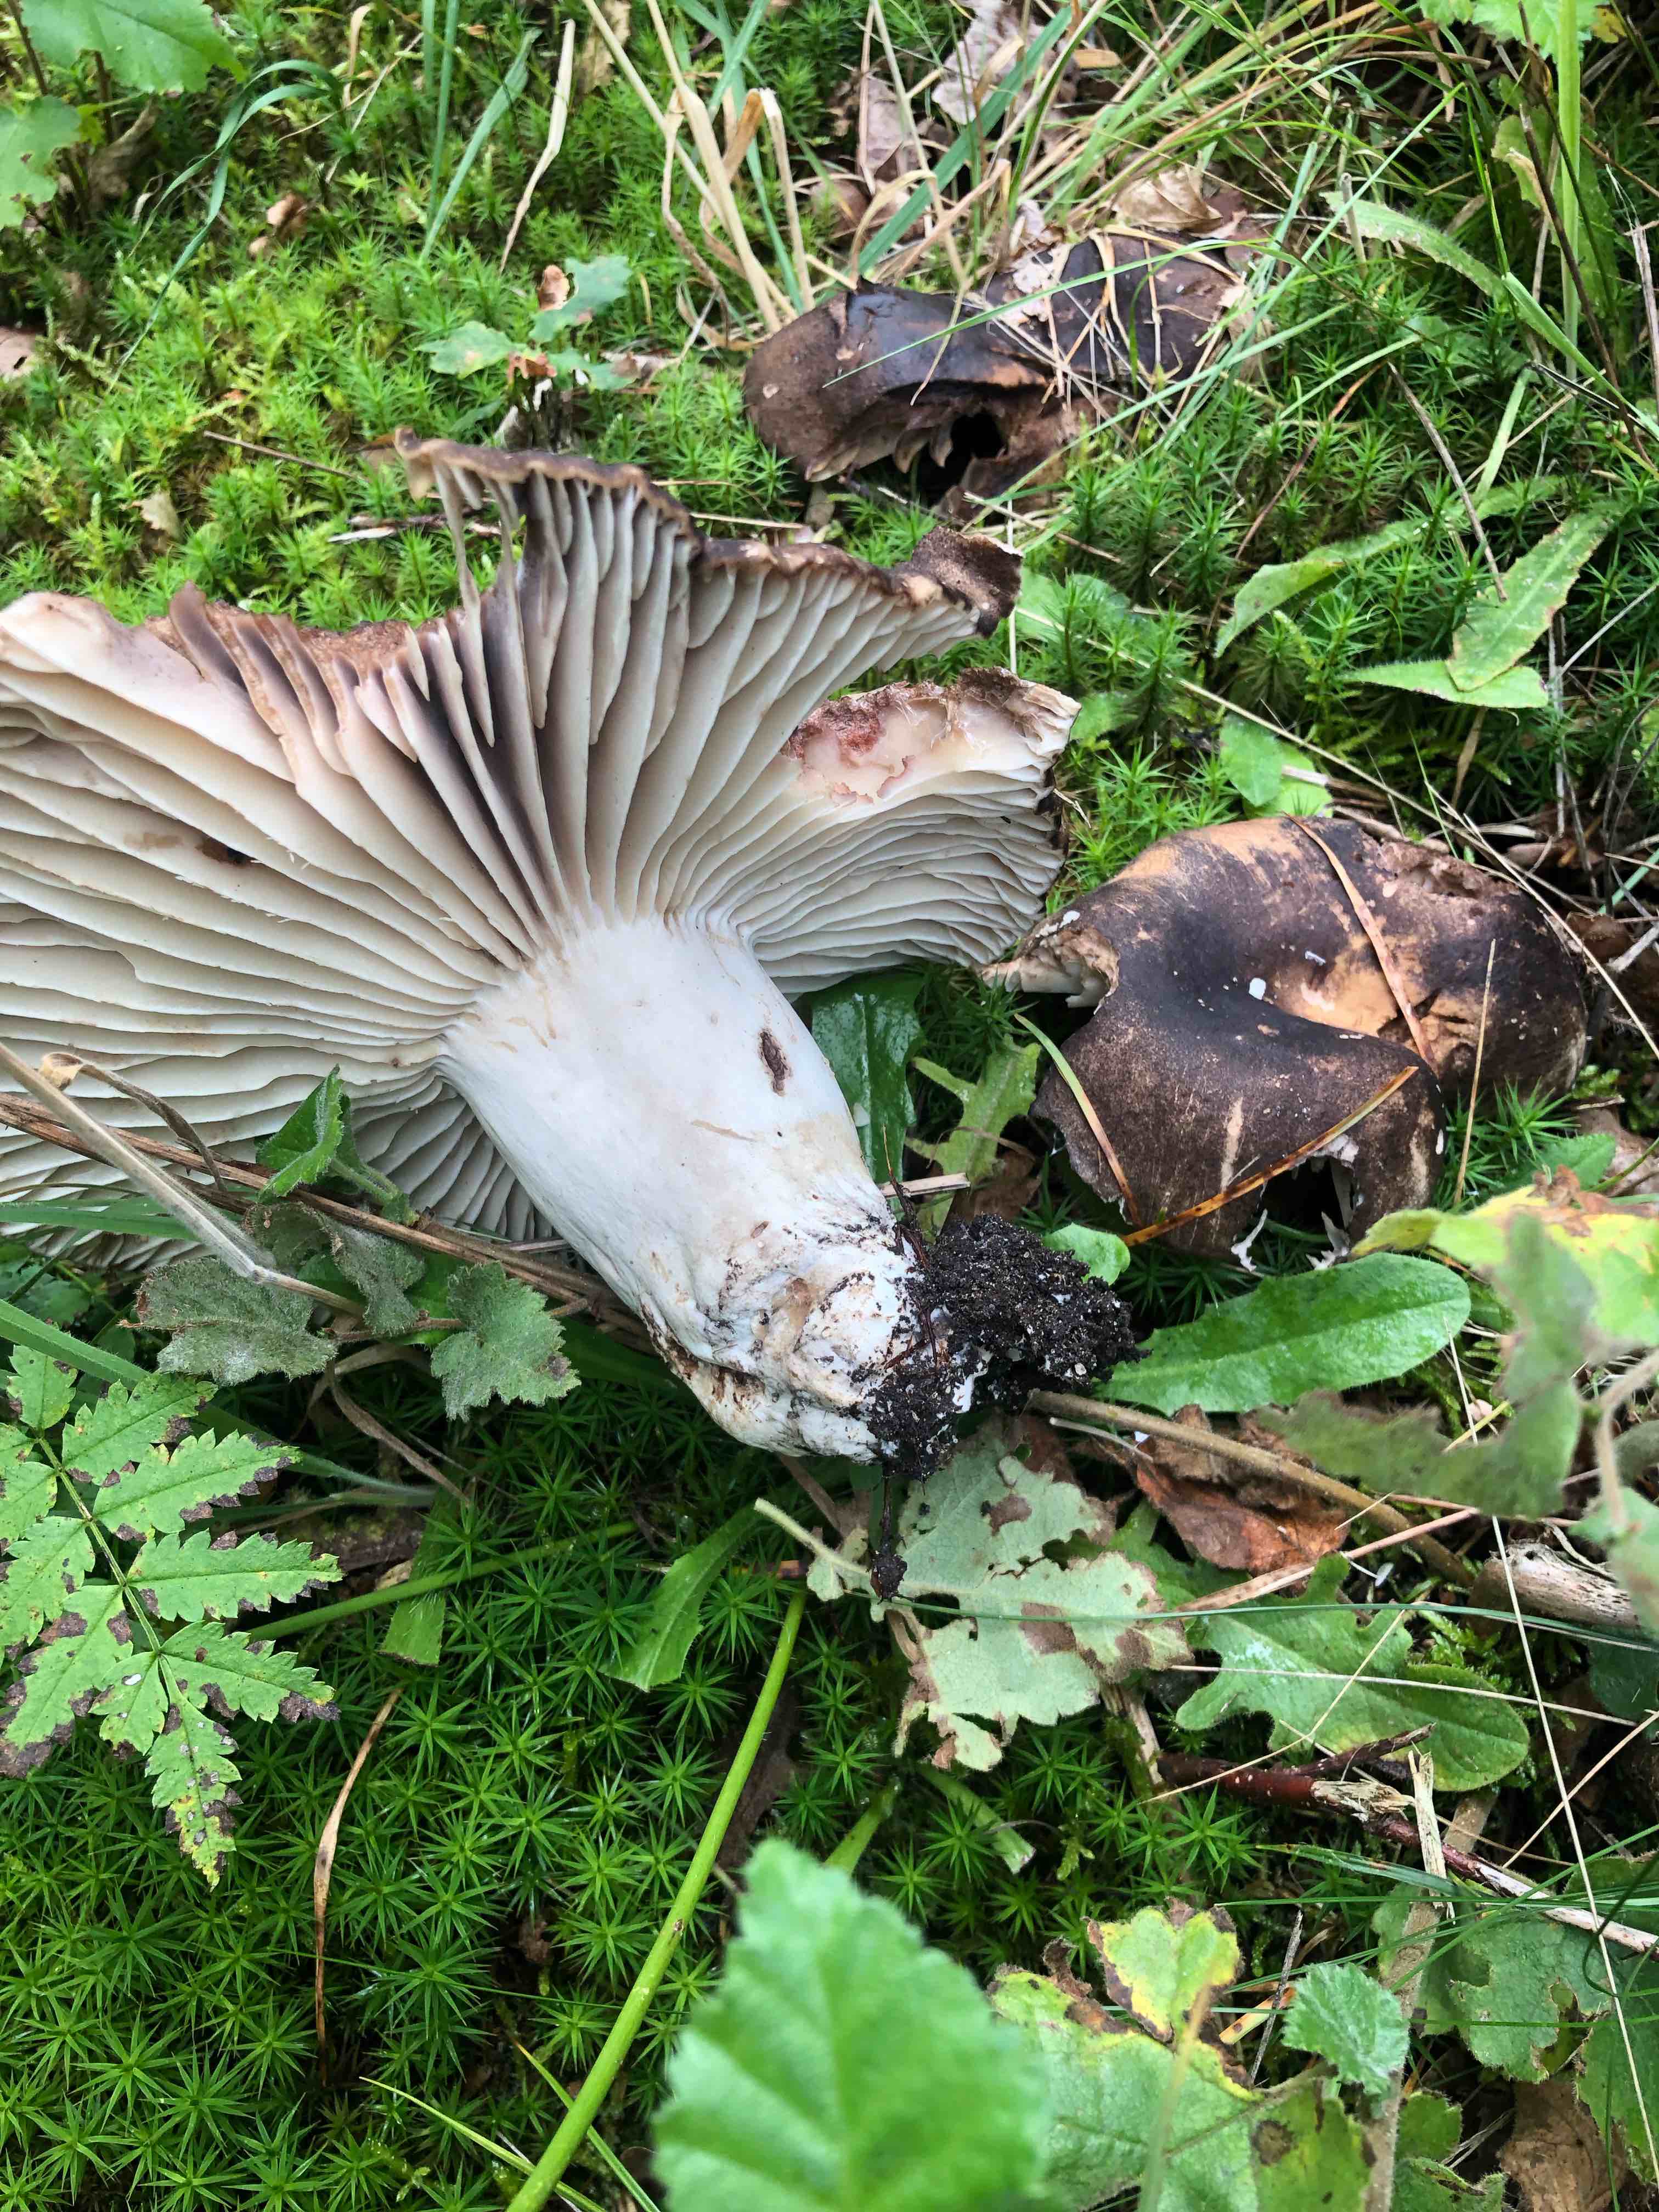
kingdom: Fungi
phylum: Basidiomycota
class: Agaricomycetes
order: Russulales
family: Russulaceae
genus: Russula
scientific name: Russula adusta
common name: sværtende skørhat
